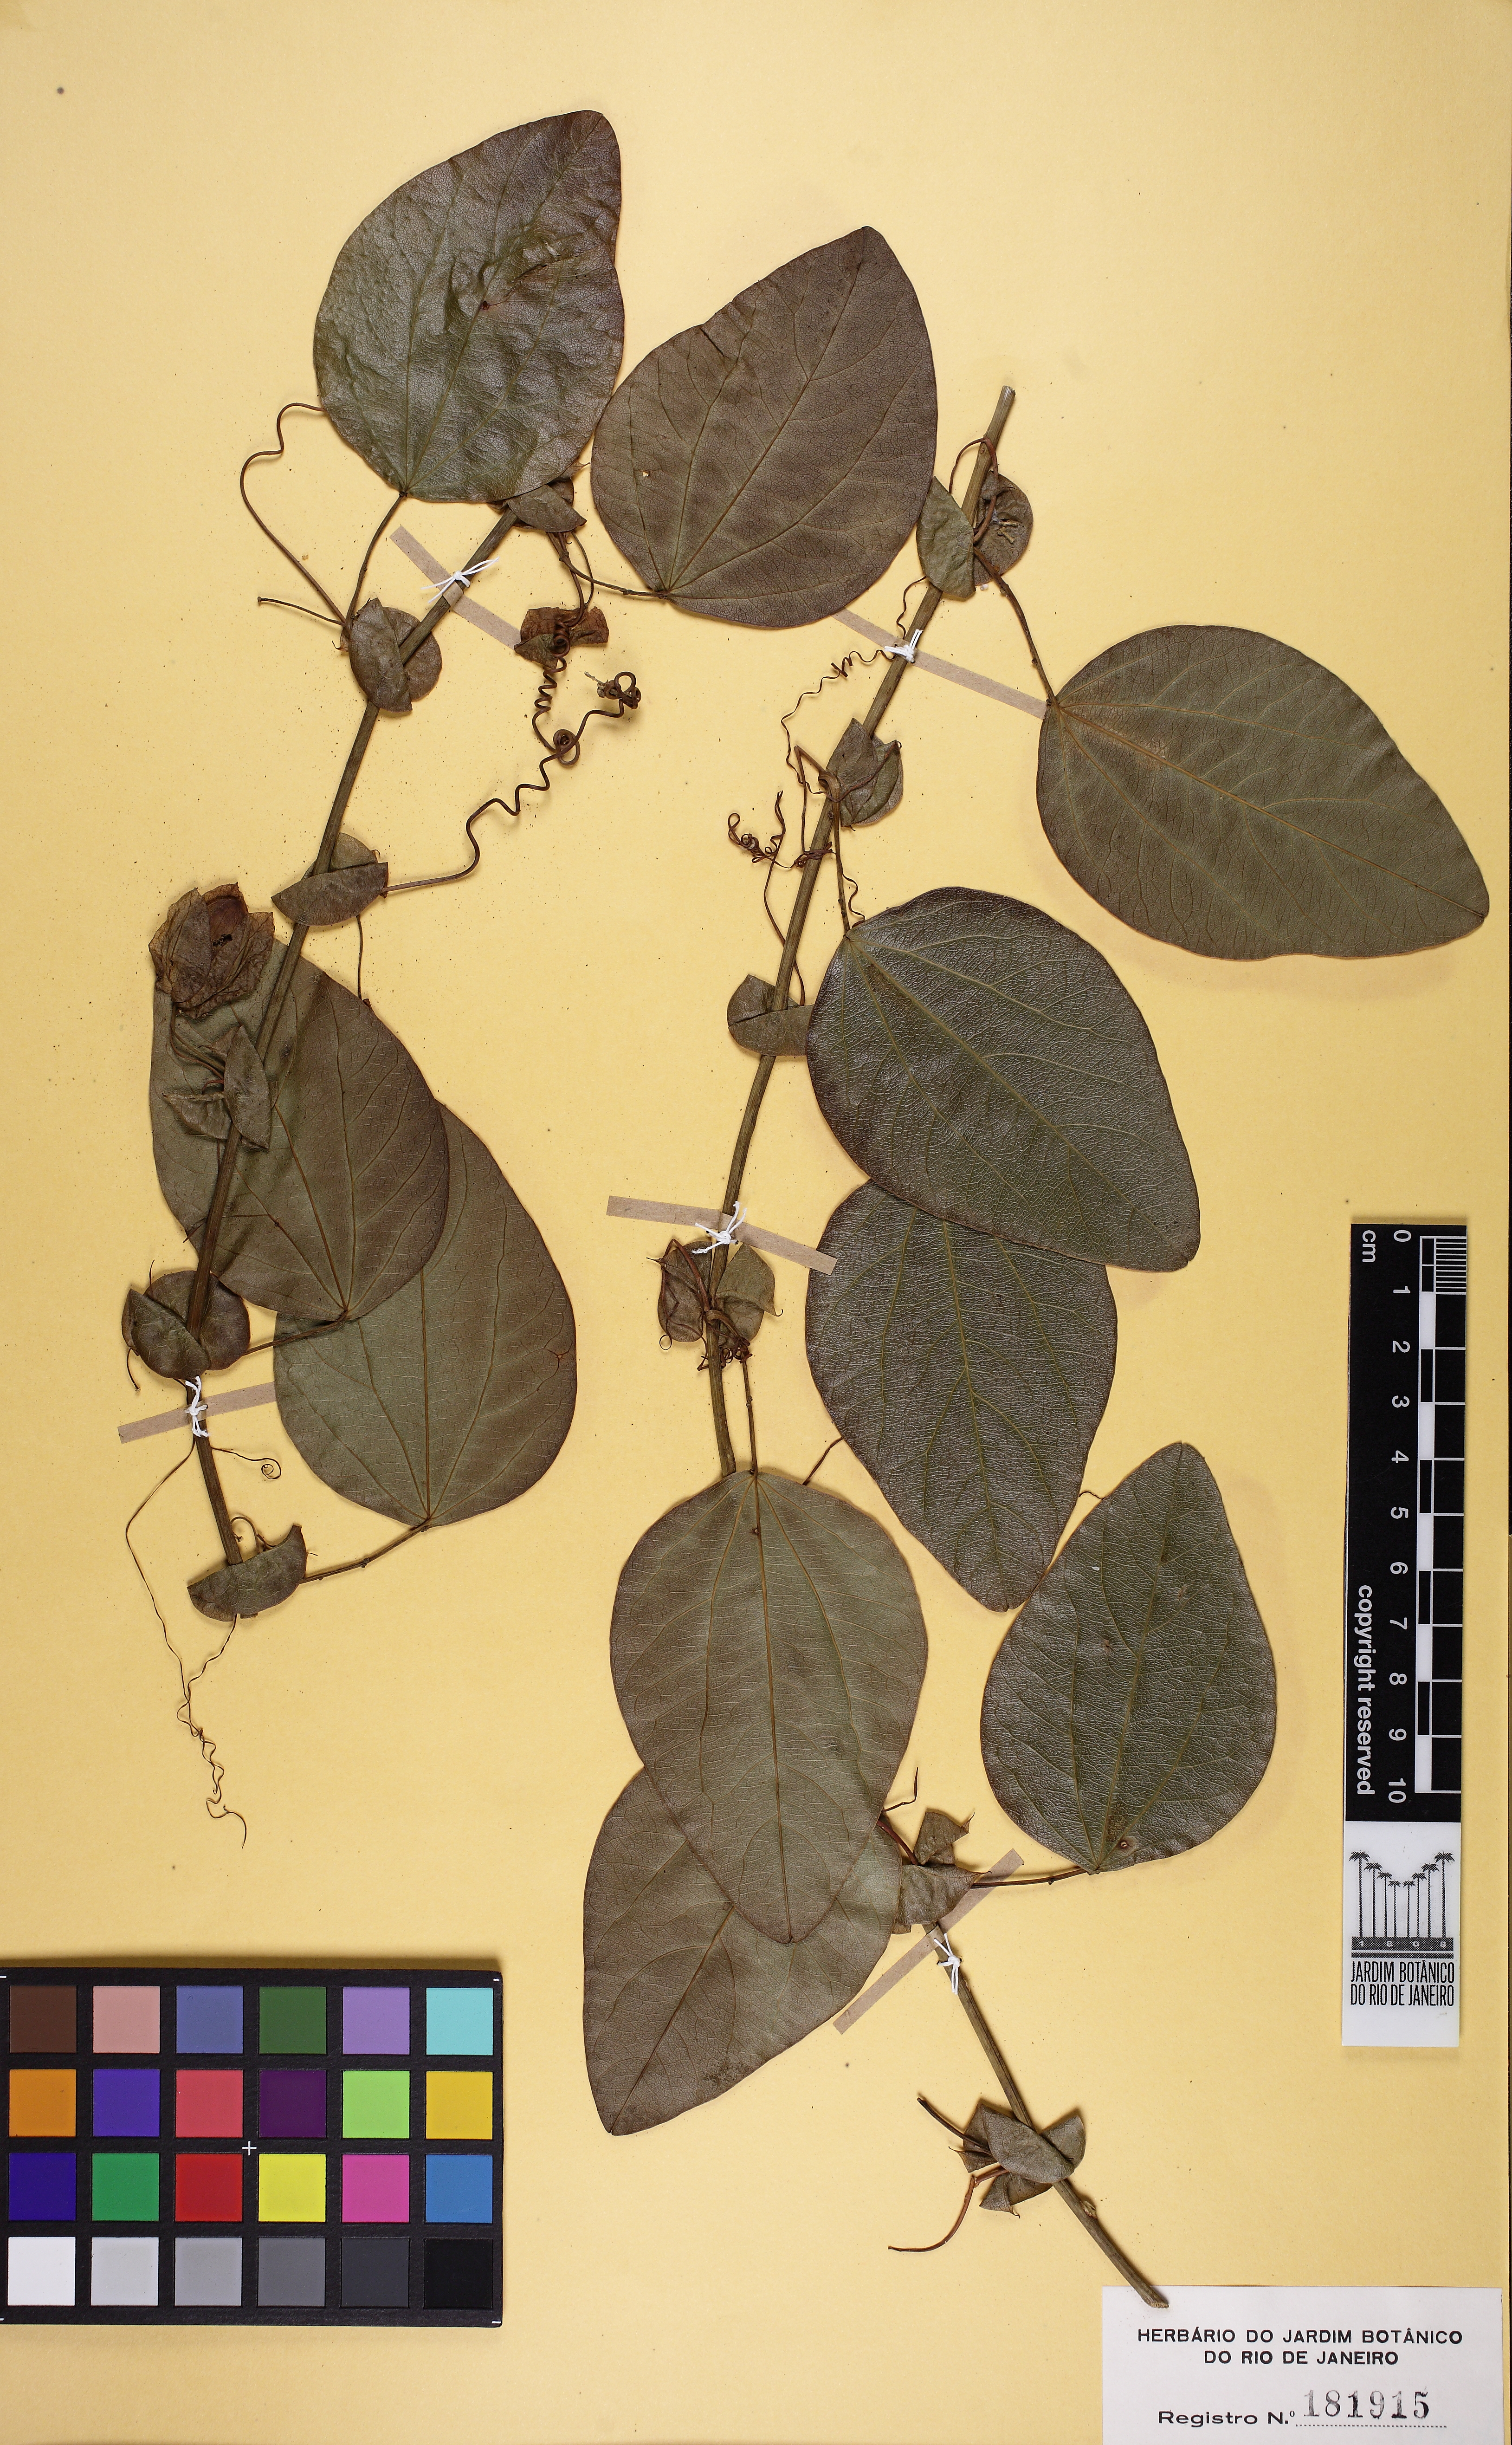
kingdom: Plantae
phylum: Tracheophyta
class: Magnoliopsida
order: Malpighiales
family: Passifloraceae
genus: Passiflora
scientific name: Passiflora actinia
